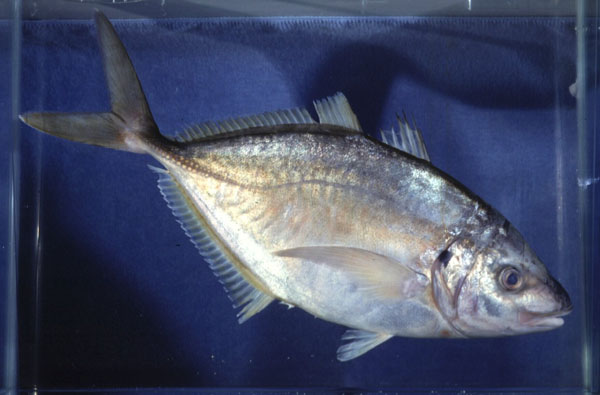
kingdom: Animalia
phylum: Chordata
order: Perciformes
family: Carangidae
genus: Pseudocaranx
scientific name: Pseudocaranx dentex
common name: White trevally
